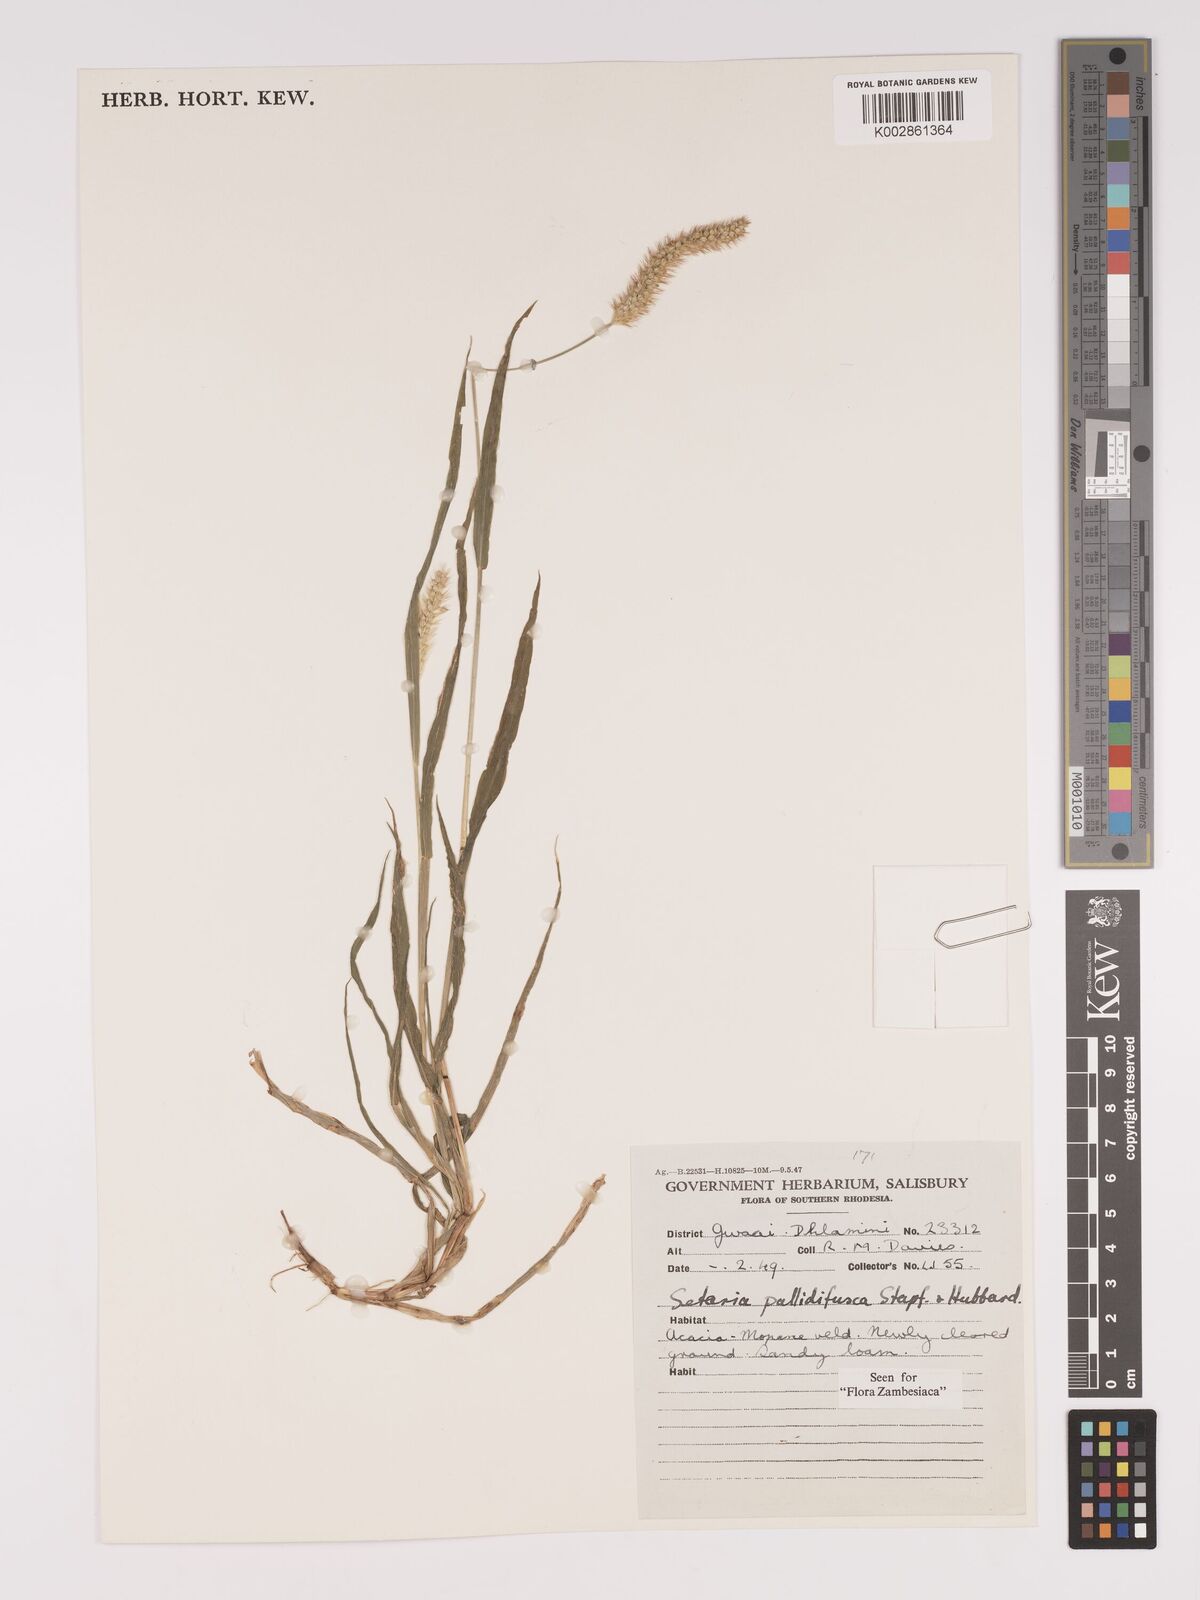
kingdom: Plantae
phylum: Tracheophyta
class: Liliopsida
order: Poales
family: Poaceae
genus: Setaria
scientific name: Setaria pumila
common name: Yellow bristle-grass
